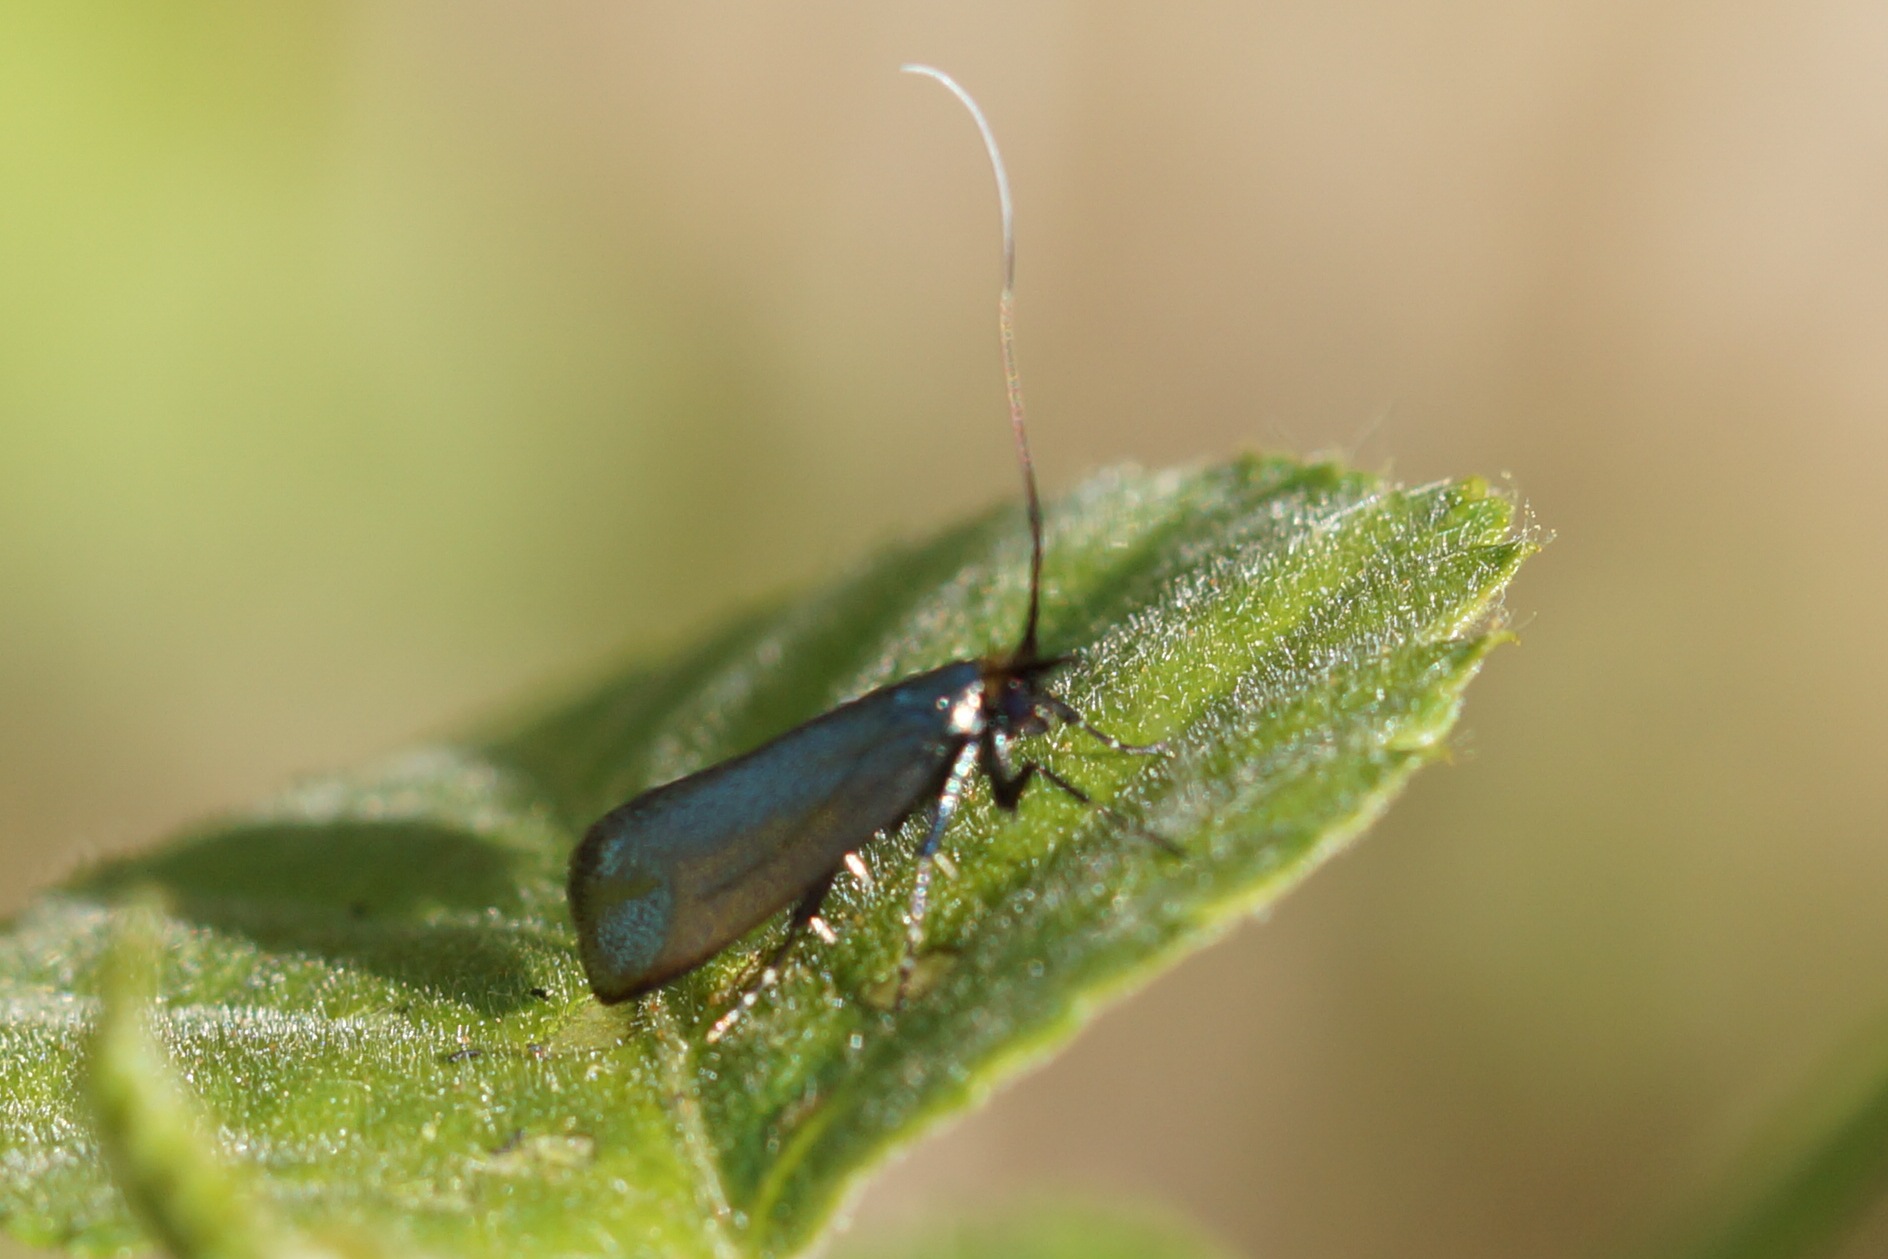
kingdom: Animalia
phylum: Arthropoda
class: Insecta
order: Lepidoptera
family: Adelidae
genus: Adela
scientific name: Adela viridella
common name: Egelanghornsmøl
